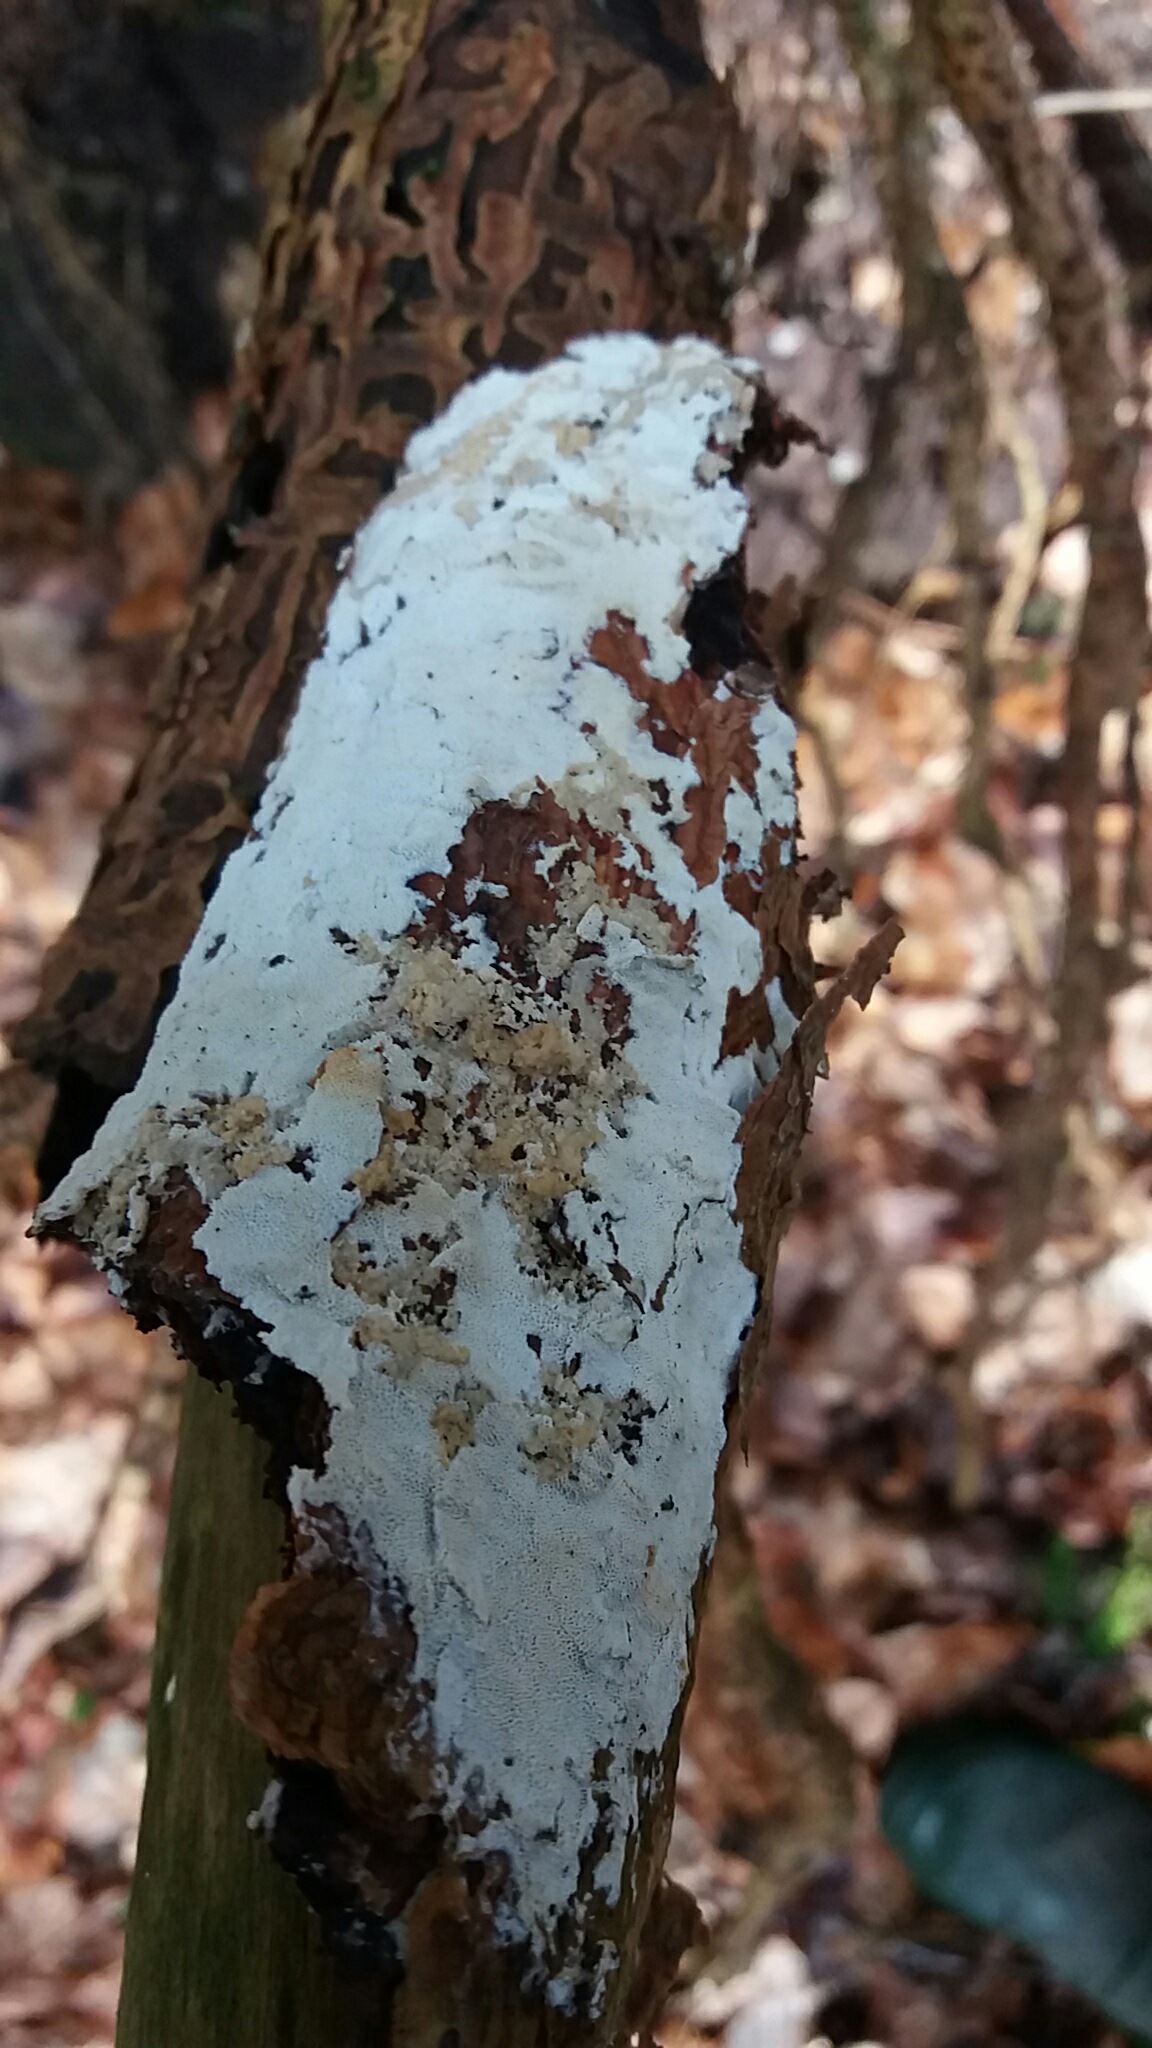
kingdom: Fungi
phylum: Basidiomycota
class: Agaricomycetes
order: Polyporales
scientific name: Polyporales
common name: poresvampordenen
